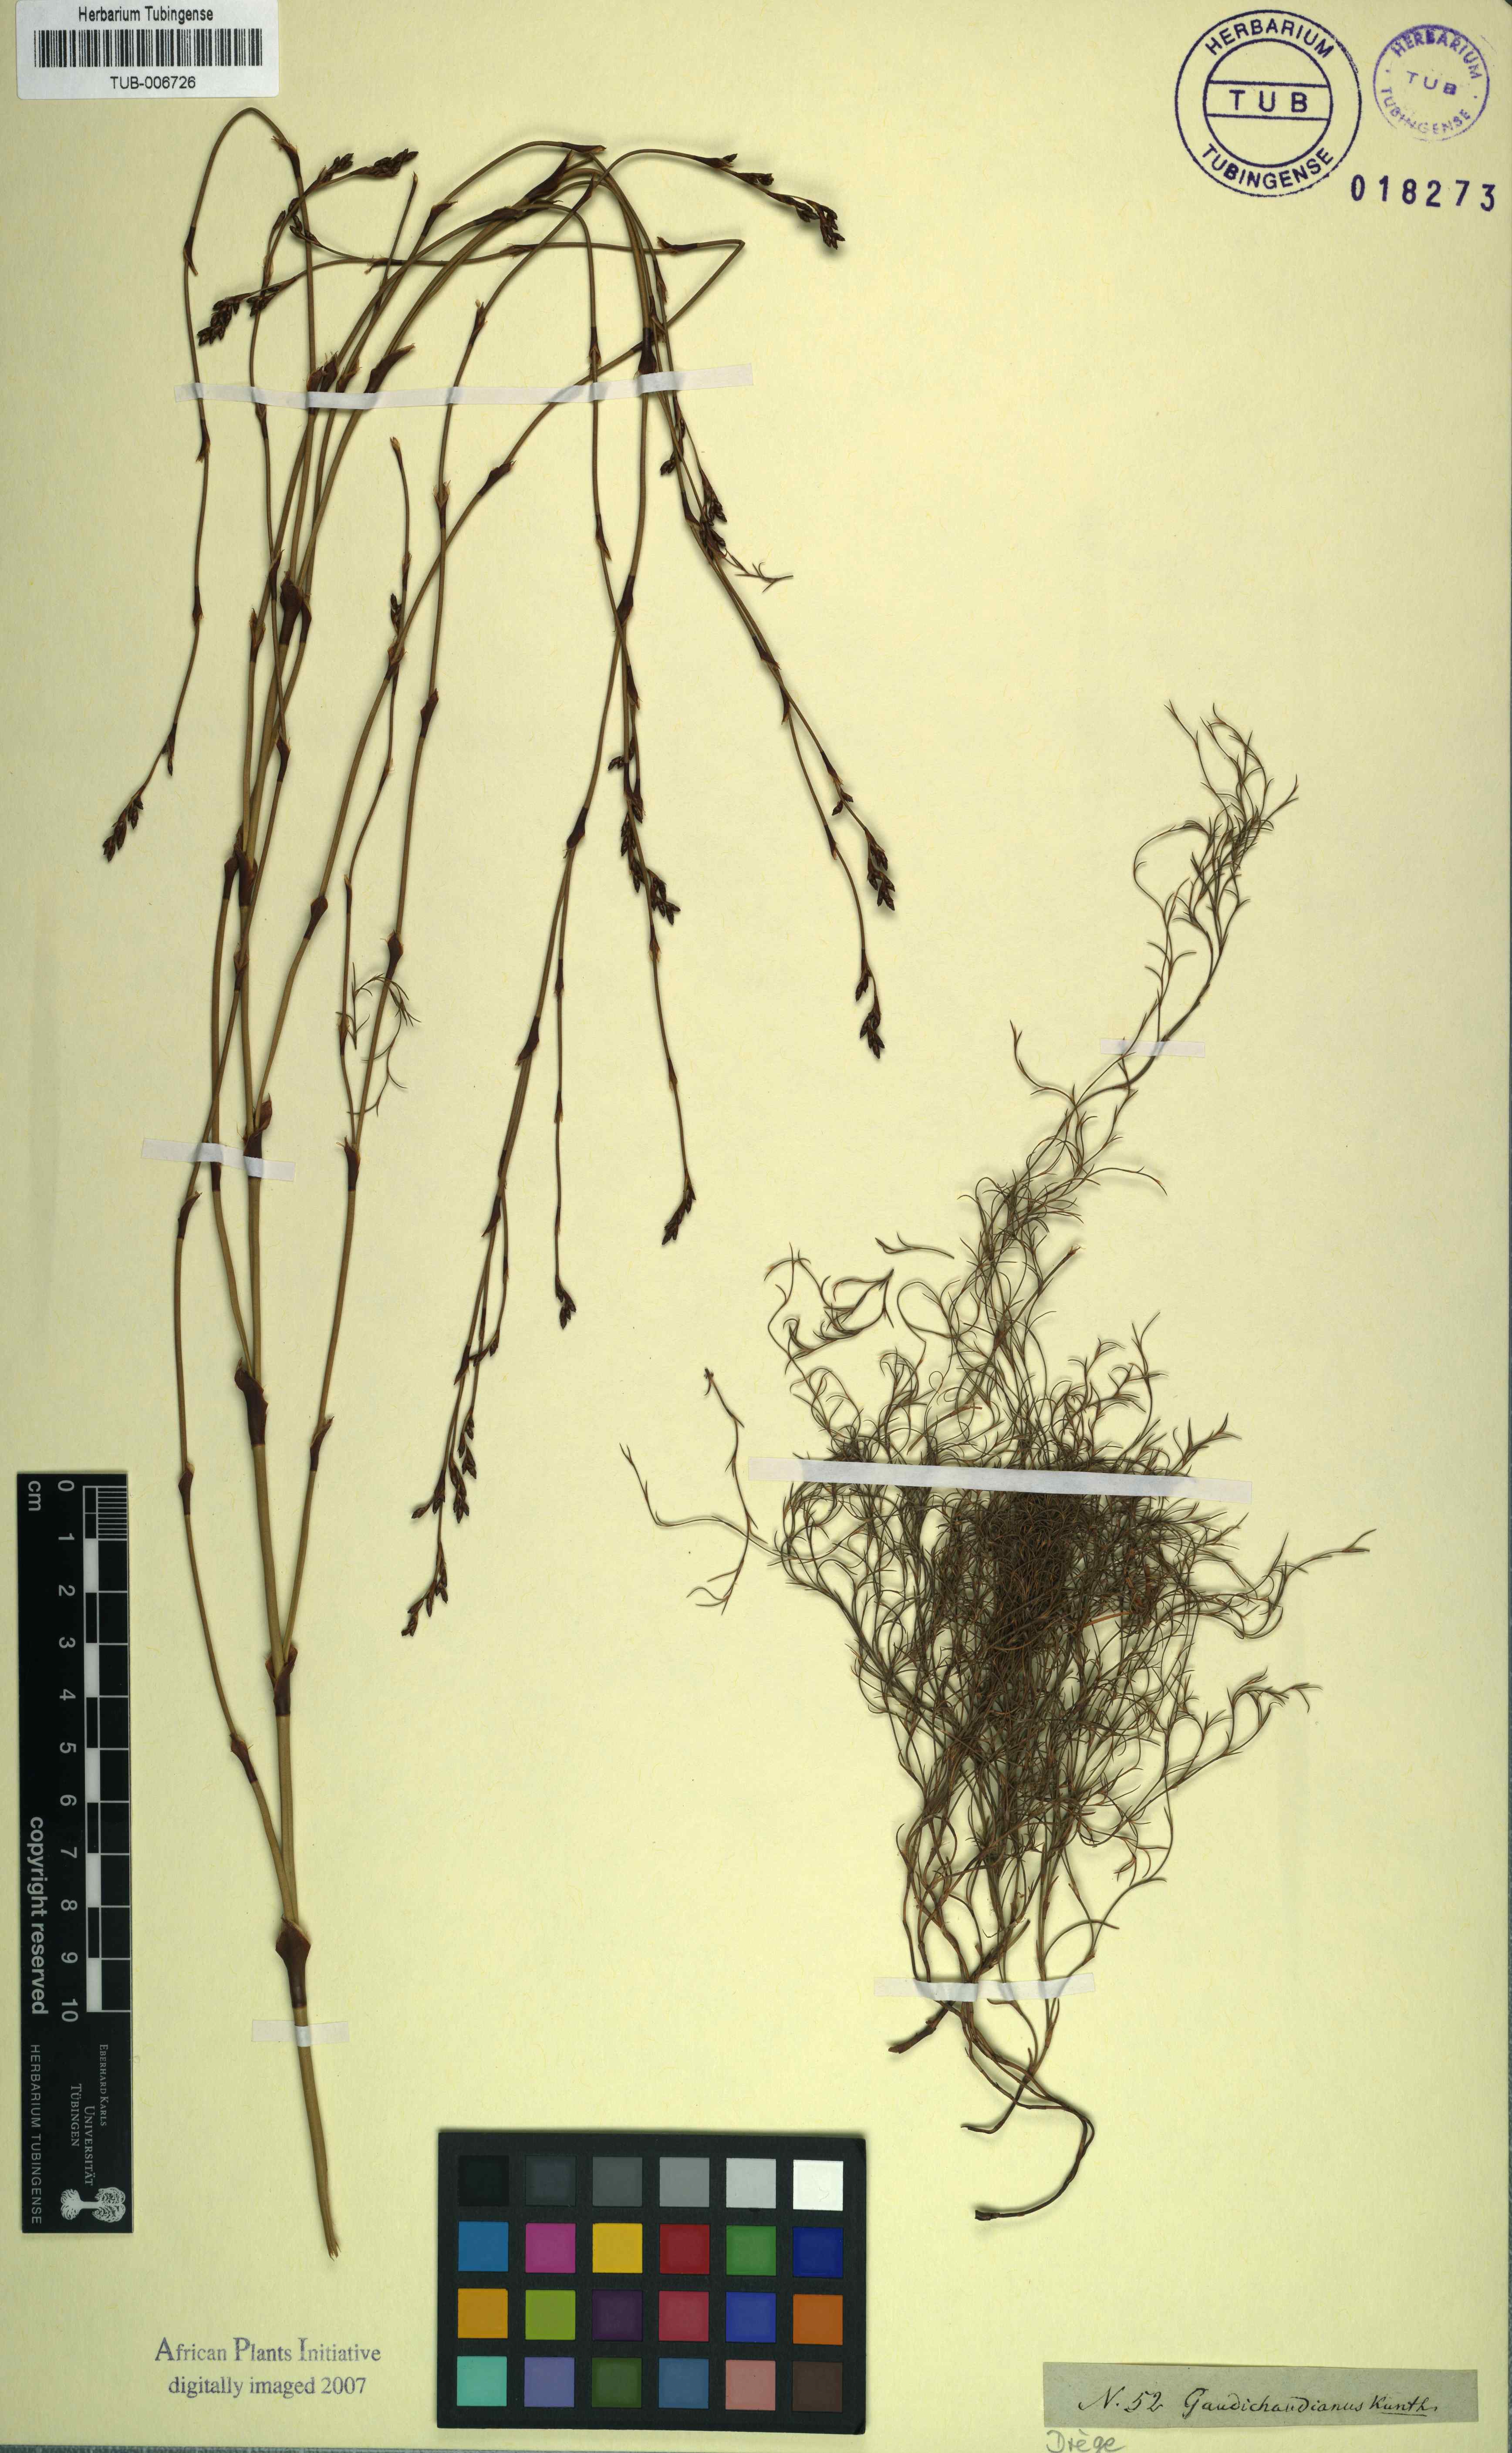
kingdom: Plantae
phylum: Tracheophyta
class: Liliopsida
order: Poales
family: Restionaceae
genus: Restio
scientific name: Restio gaudichaudianus
